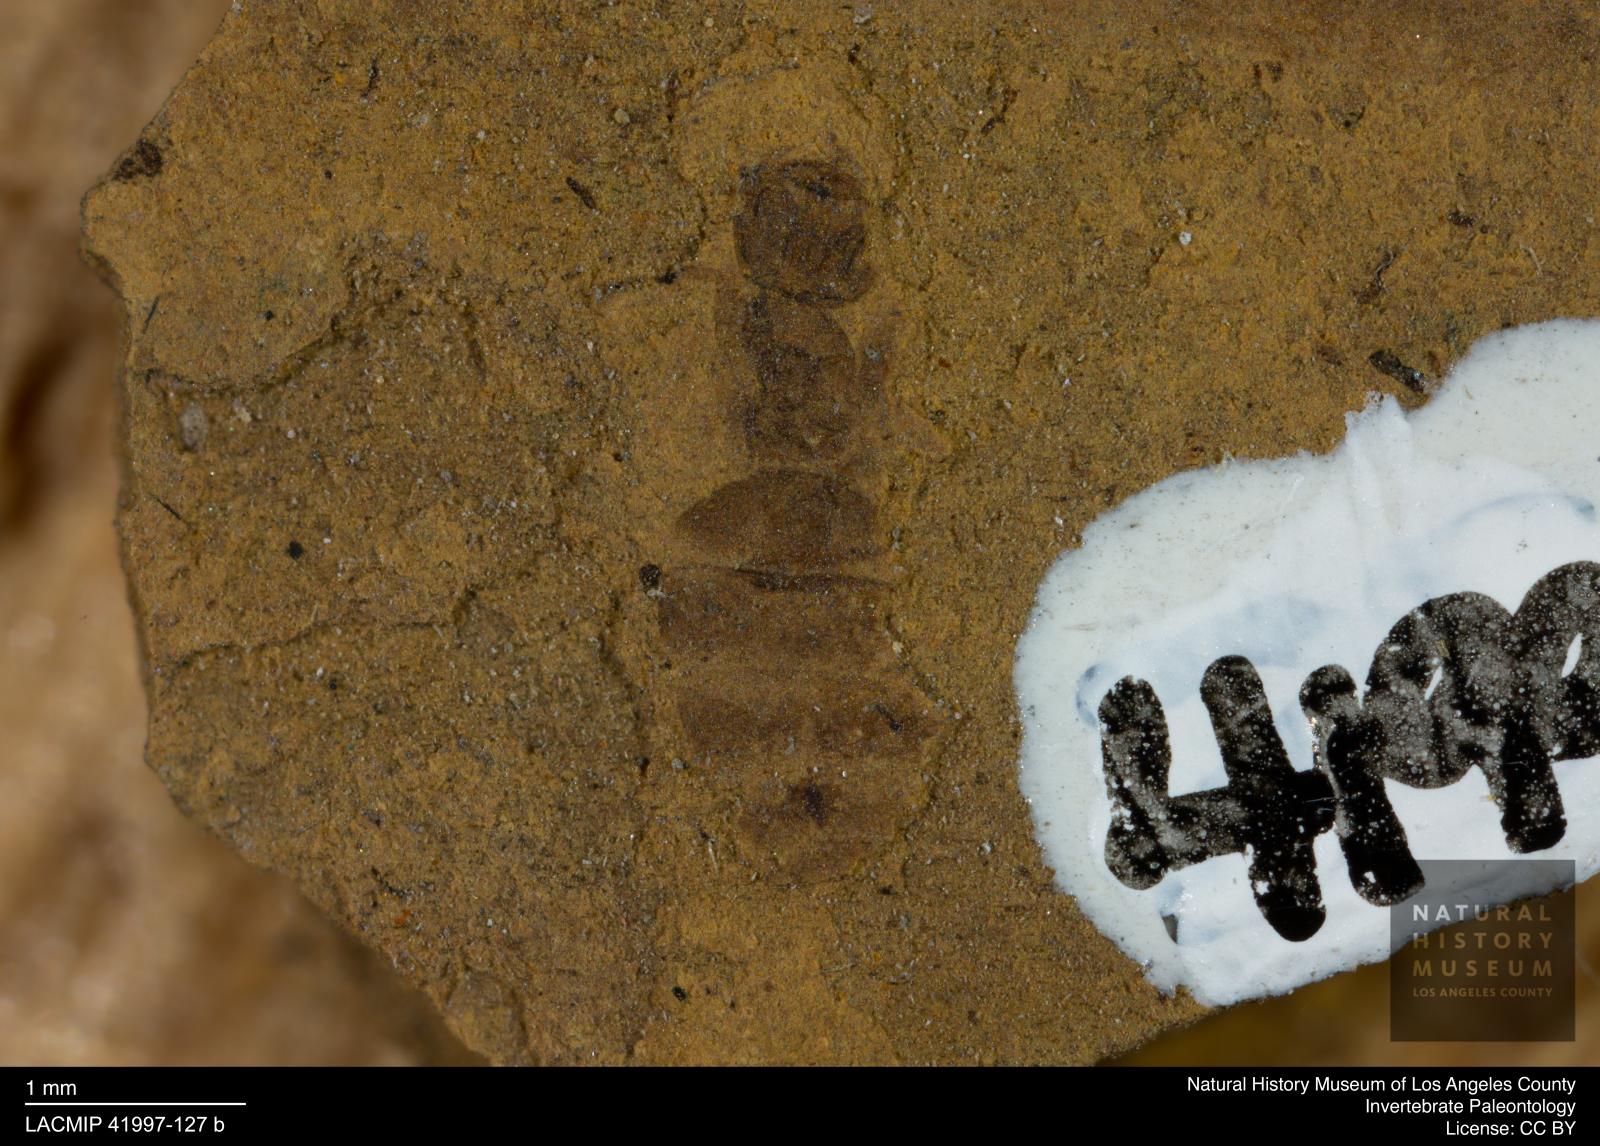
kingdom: Animalia
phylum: Arthropoda
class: Insecta
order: Hymenoptera
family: Formicidae
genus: Formica
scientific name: Formica
